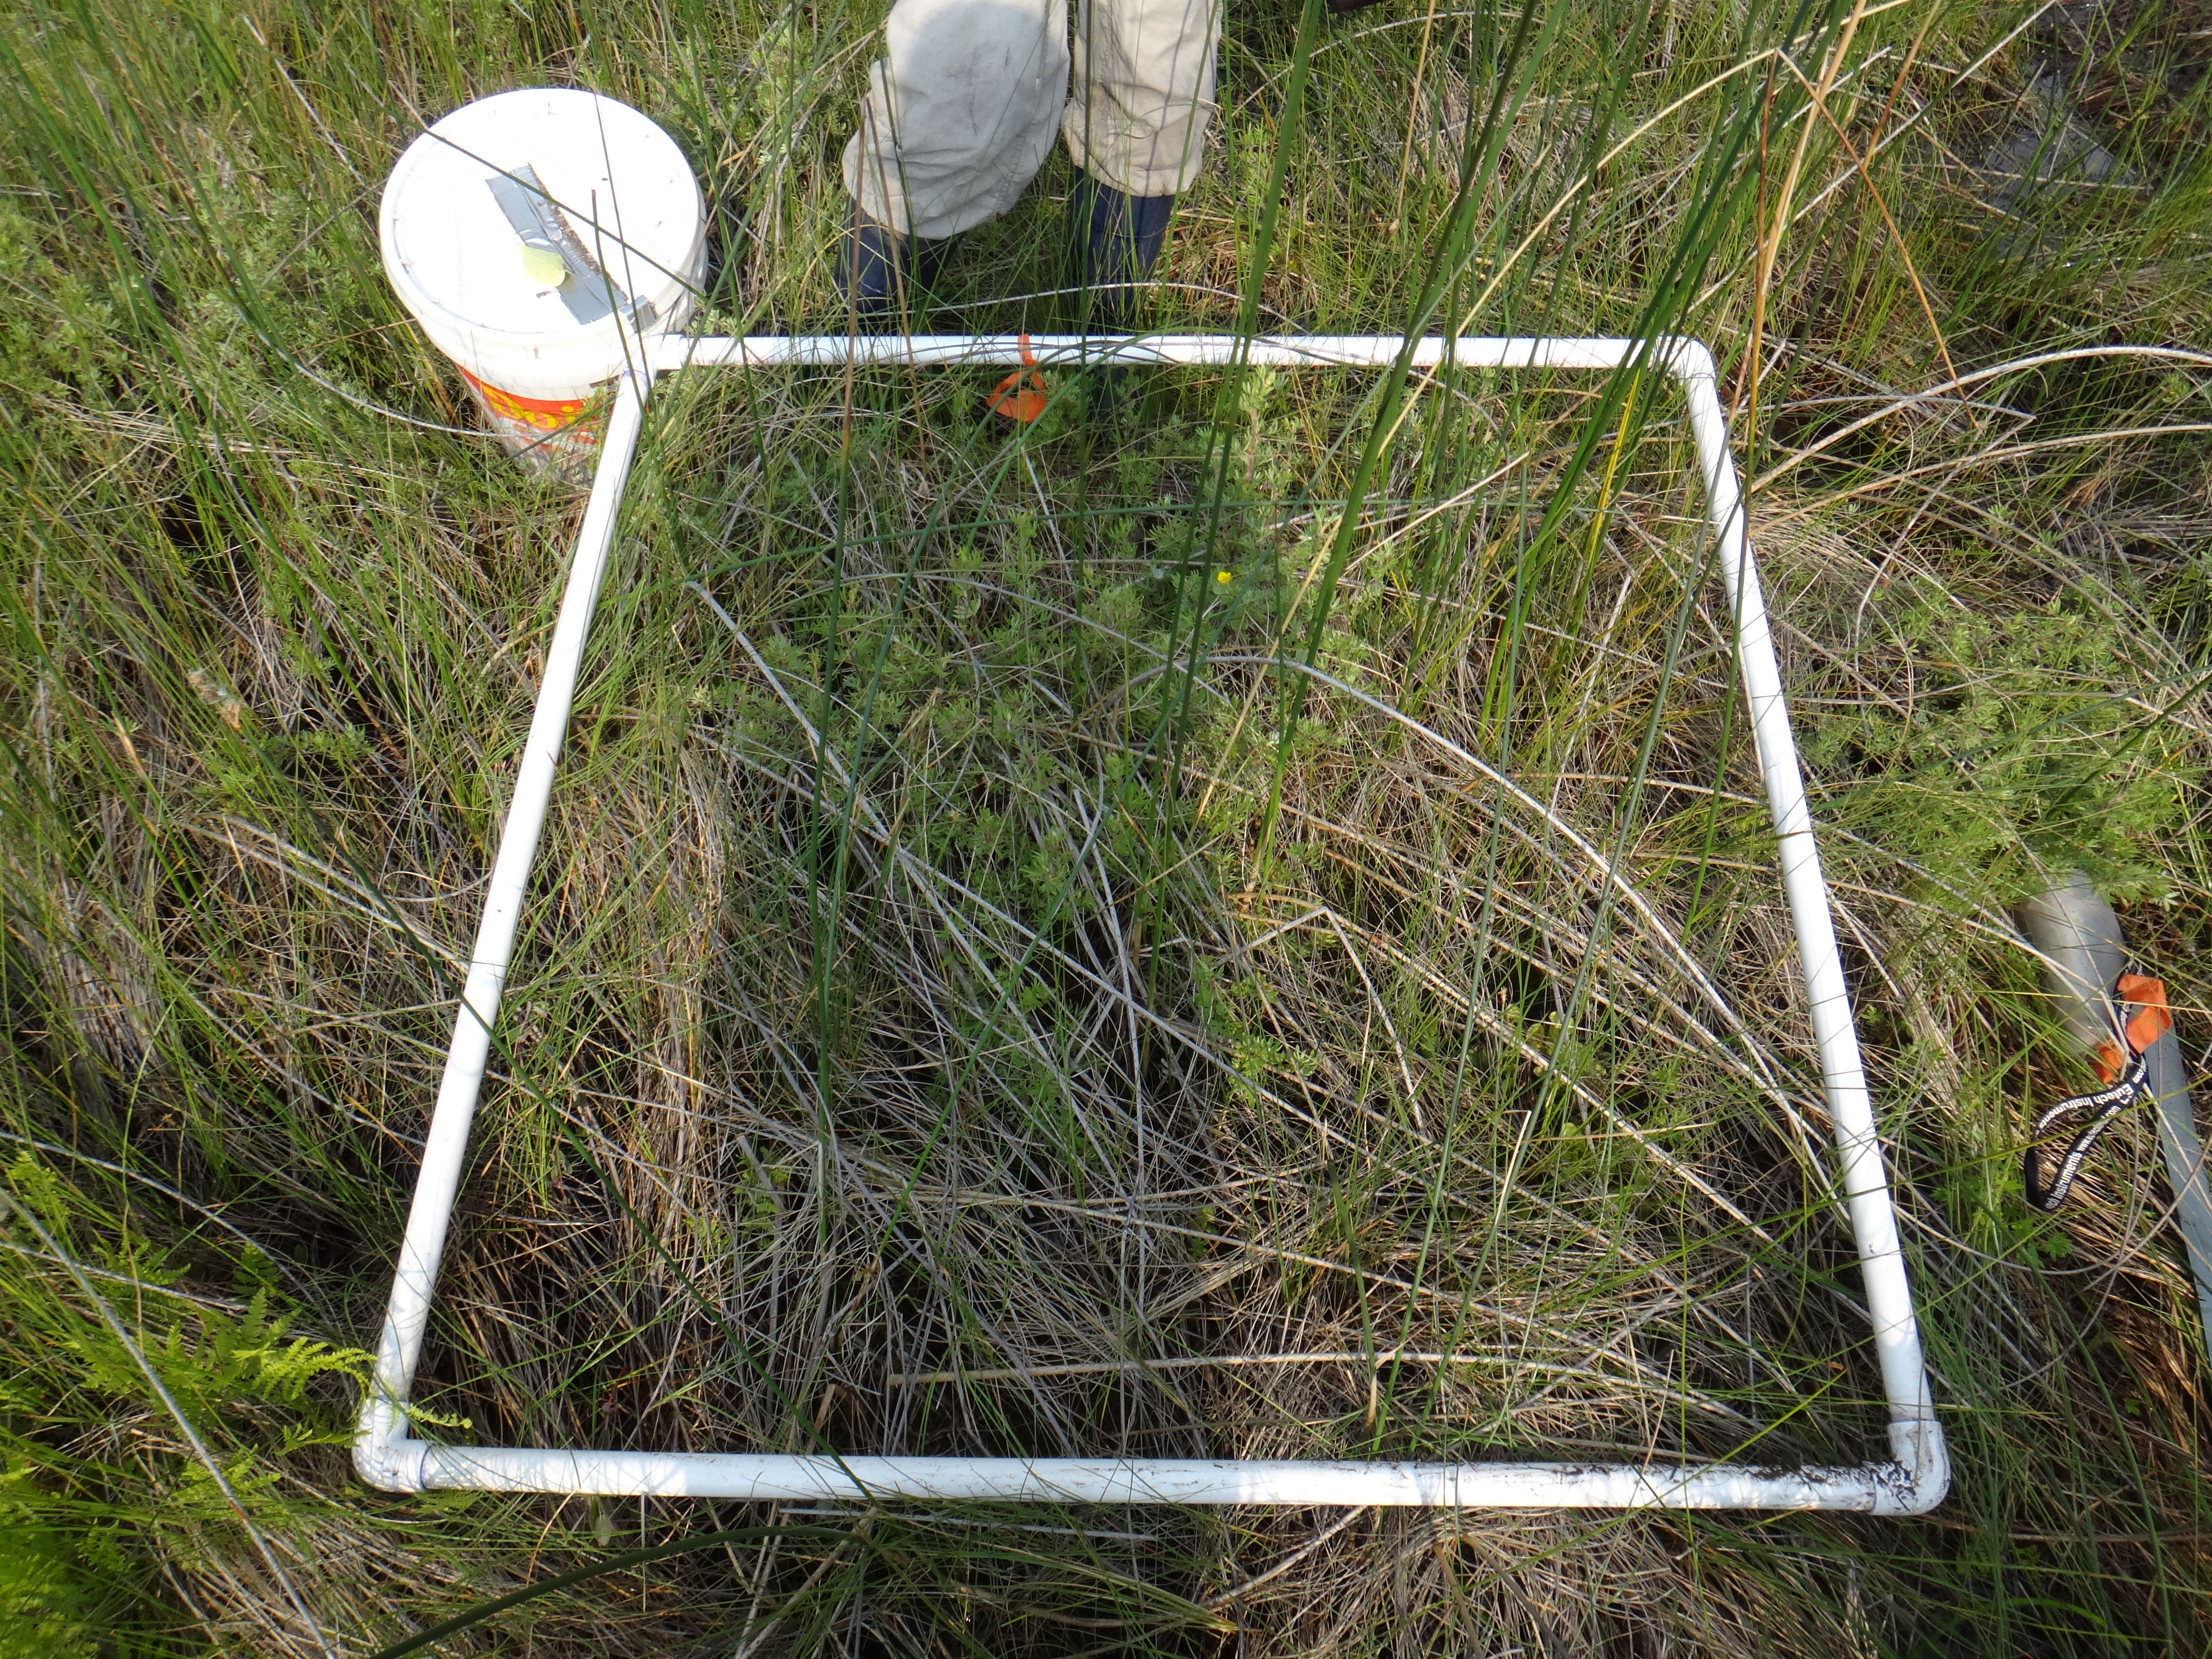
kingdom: Plantae
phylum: Tracheophyta
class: Polypodiopsida
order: Polypodiales
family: Thelypteridaceae
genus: Thelypteris
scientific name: Thelypteris palustris
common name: Marsh fern
